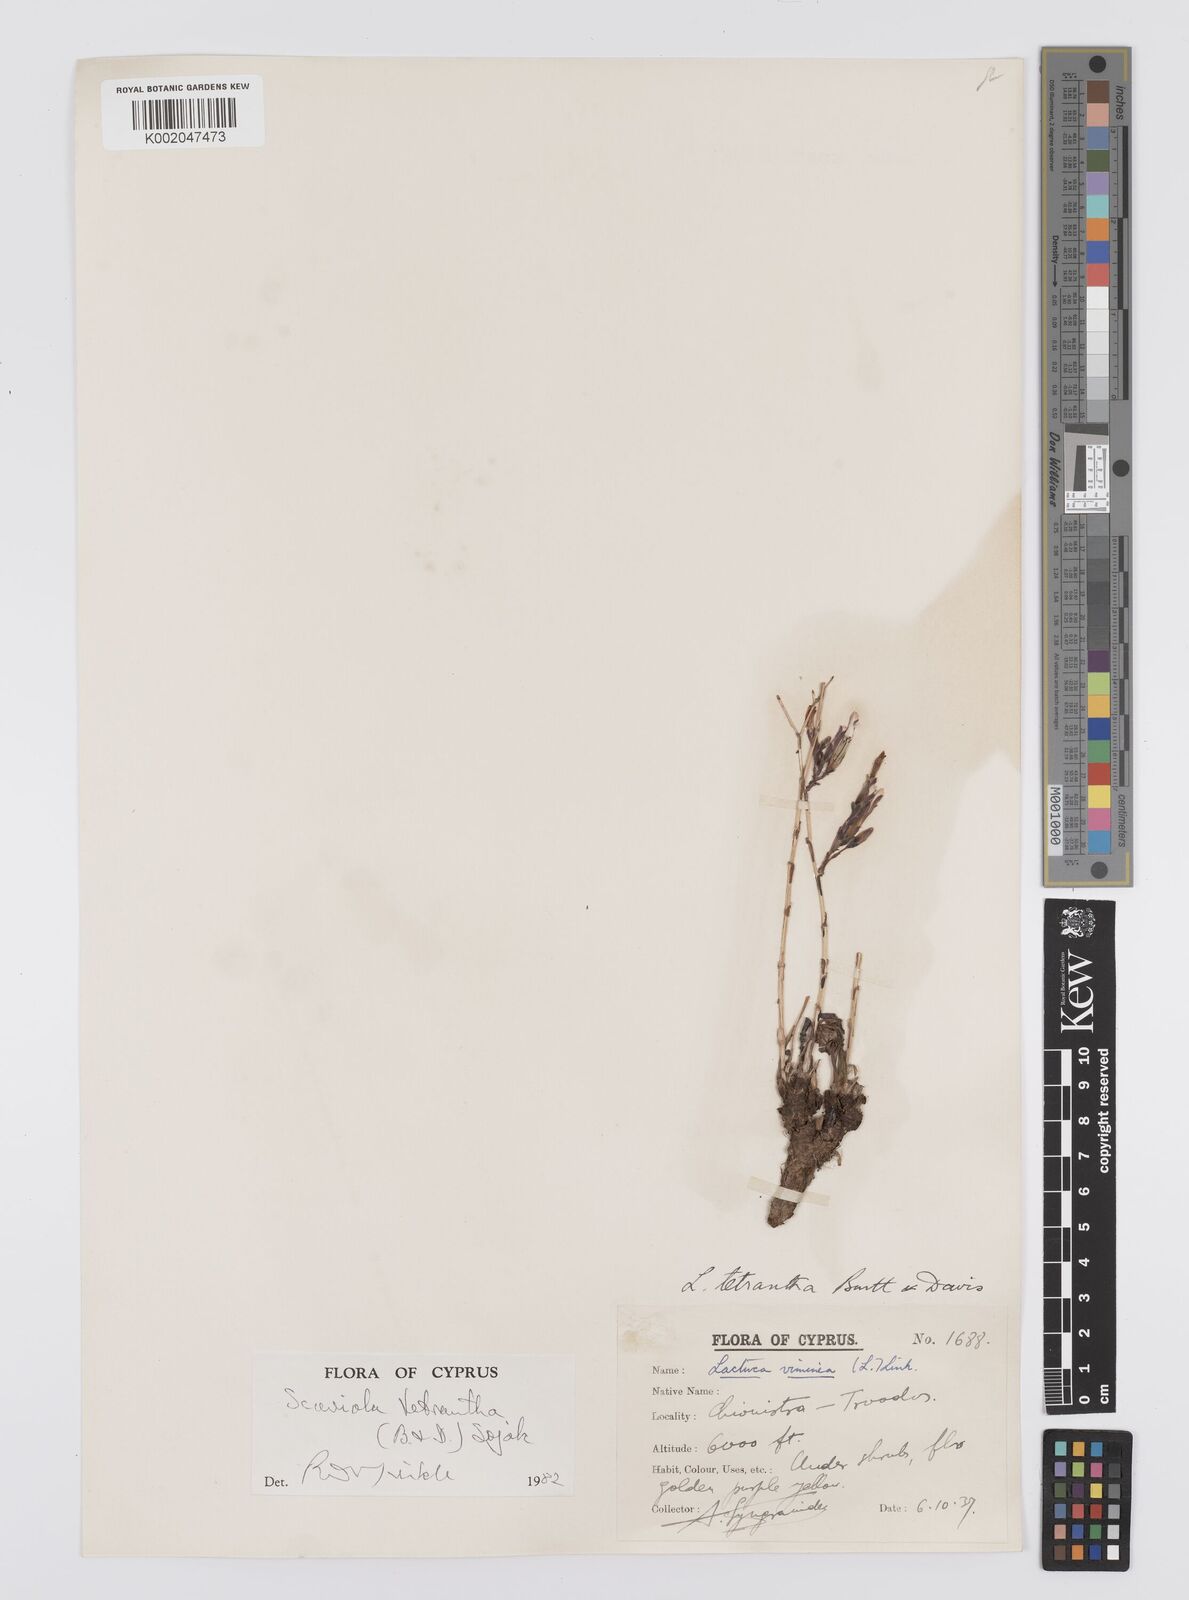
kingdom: Plantae
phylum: Tracheophyta
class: Magnoliopsida
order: Asterales
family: Asteraceae
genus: Lactuca
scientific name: Lactuca tetrantha
